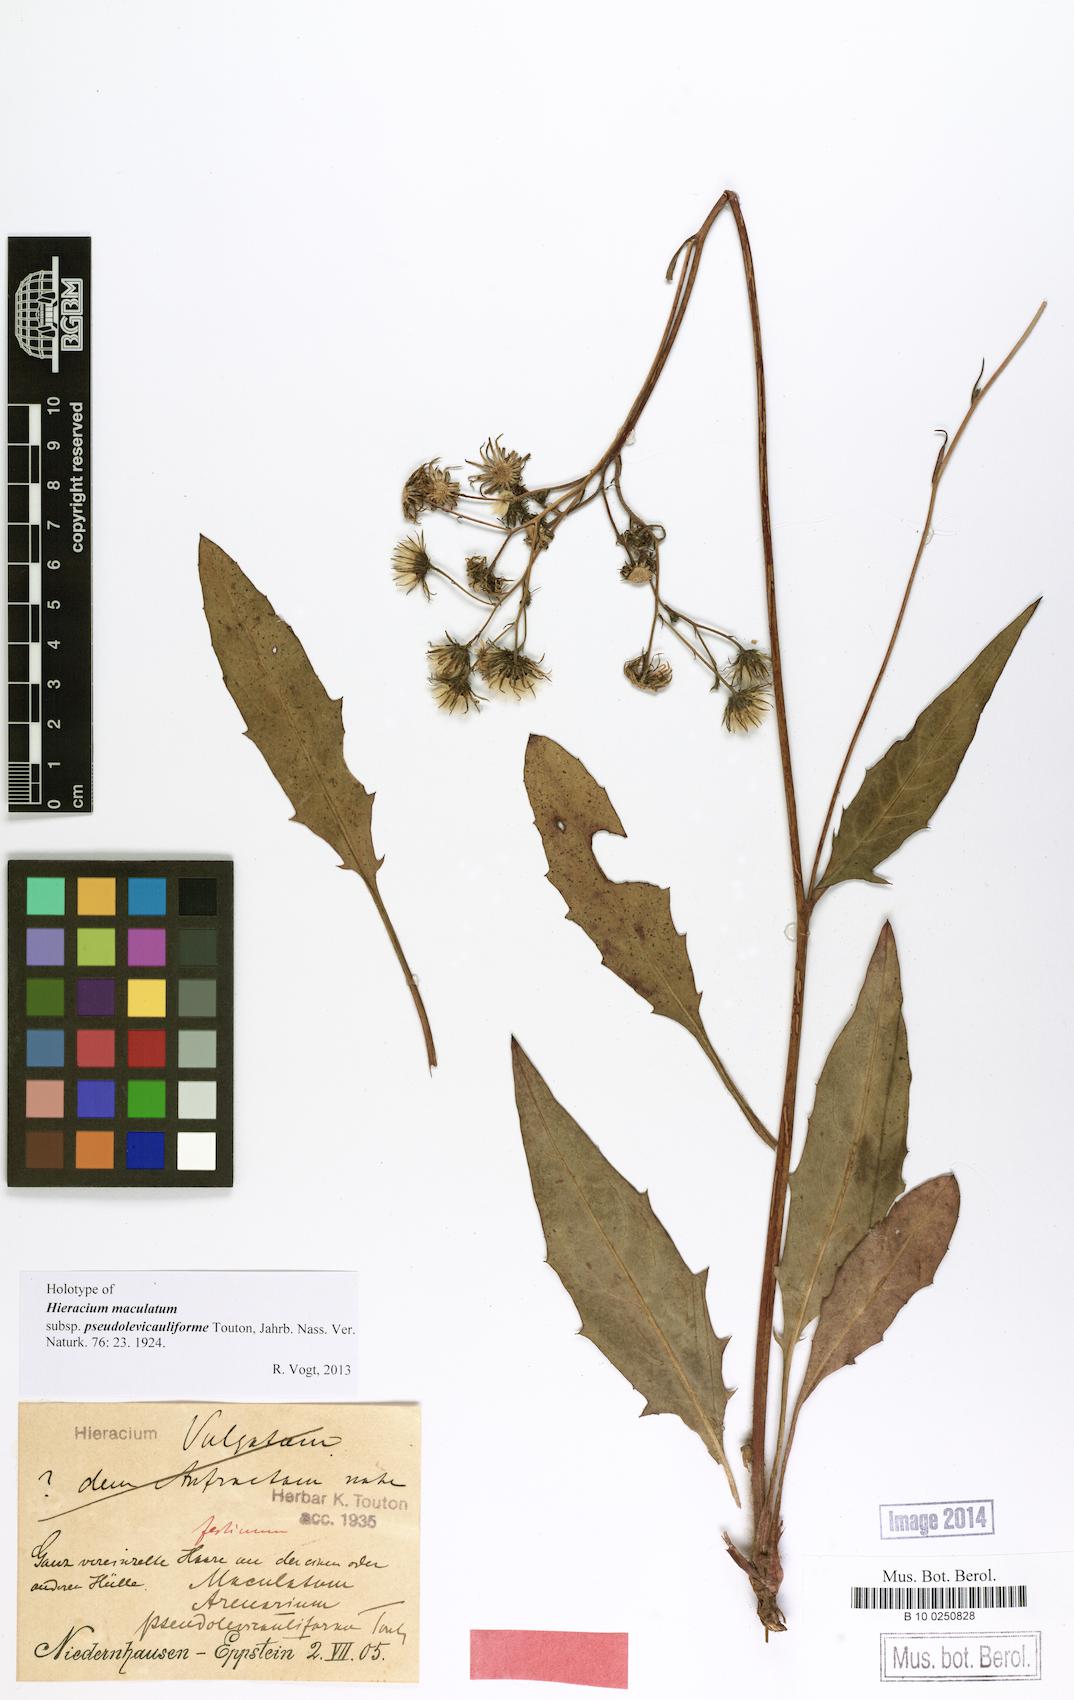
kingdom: Plantae
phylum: Tracheophyta
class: Magnoliopsida
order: Asterales
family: Asteraceae
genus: Hieracium
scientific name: Hieracium maculatum
